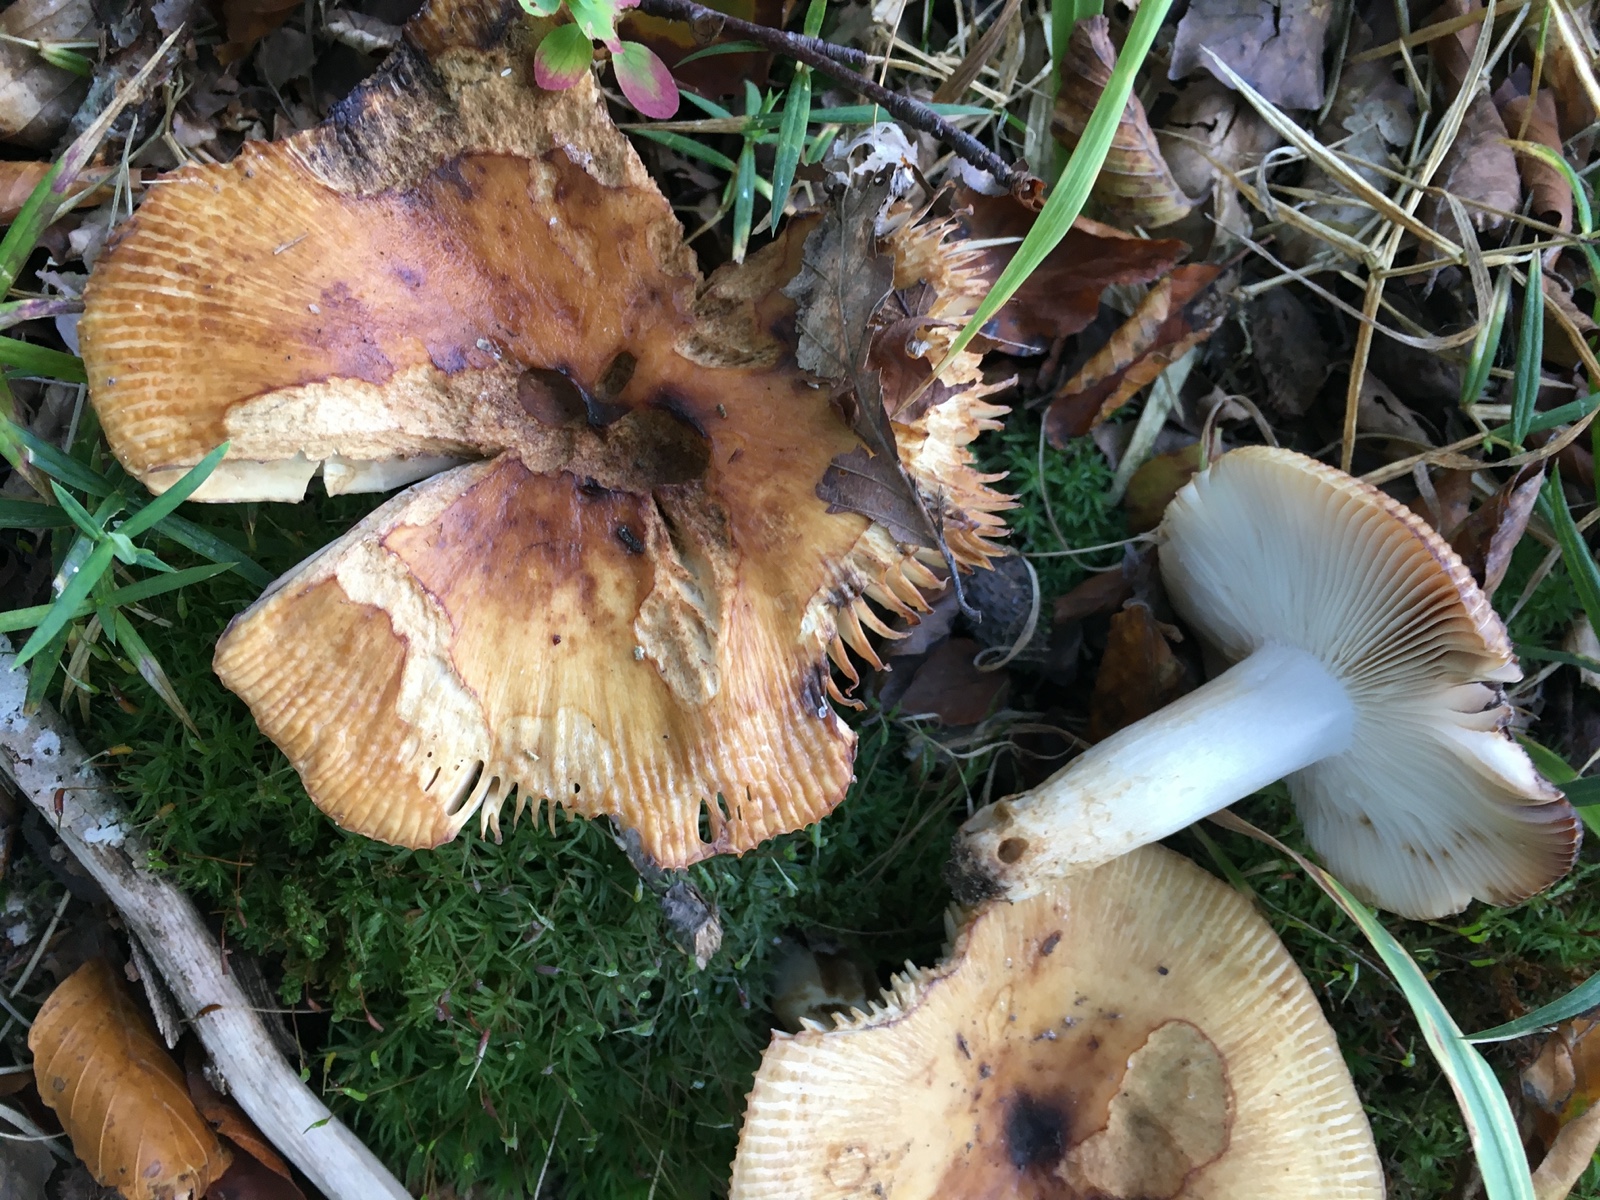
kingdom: Fungi
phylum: Basidiomycota
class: Agaricomycetes
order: Russulales
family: Russulaceae
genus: Russula
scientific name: Russula grata
